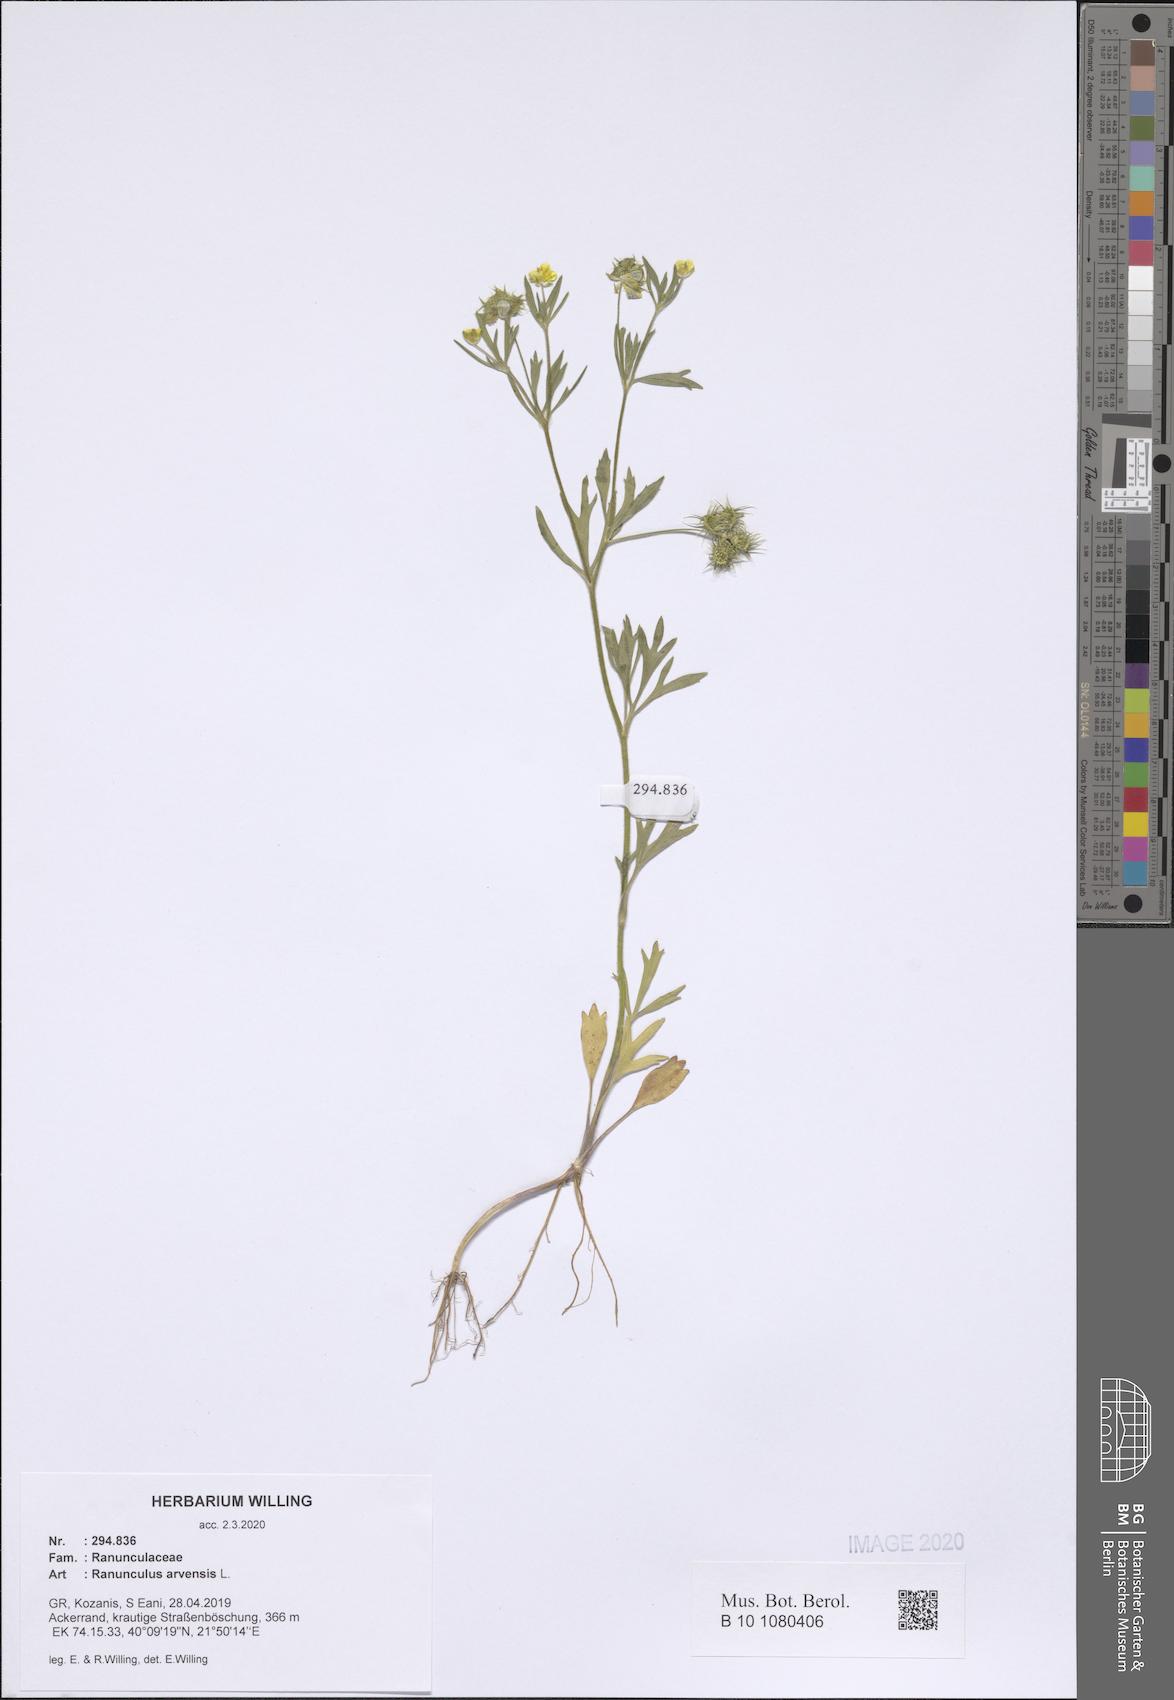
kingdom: Plantae
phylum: Tracheophyta
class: Magnoliopsida
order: Ranunculales
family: Ranunculaceae
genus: Ranunculus
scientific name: Ranunculus arvensis
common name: Corn buttercup
